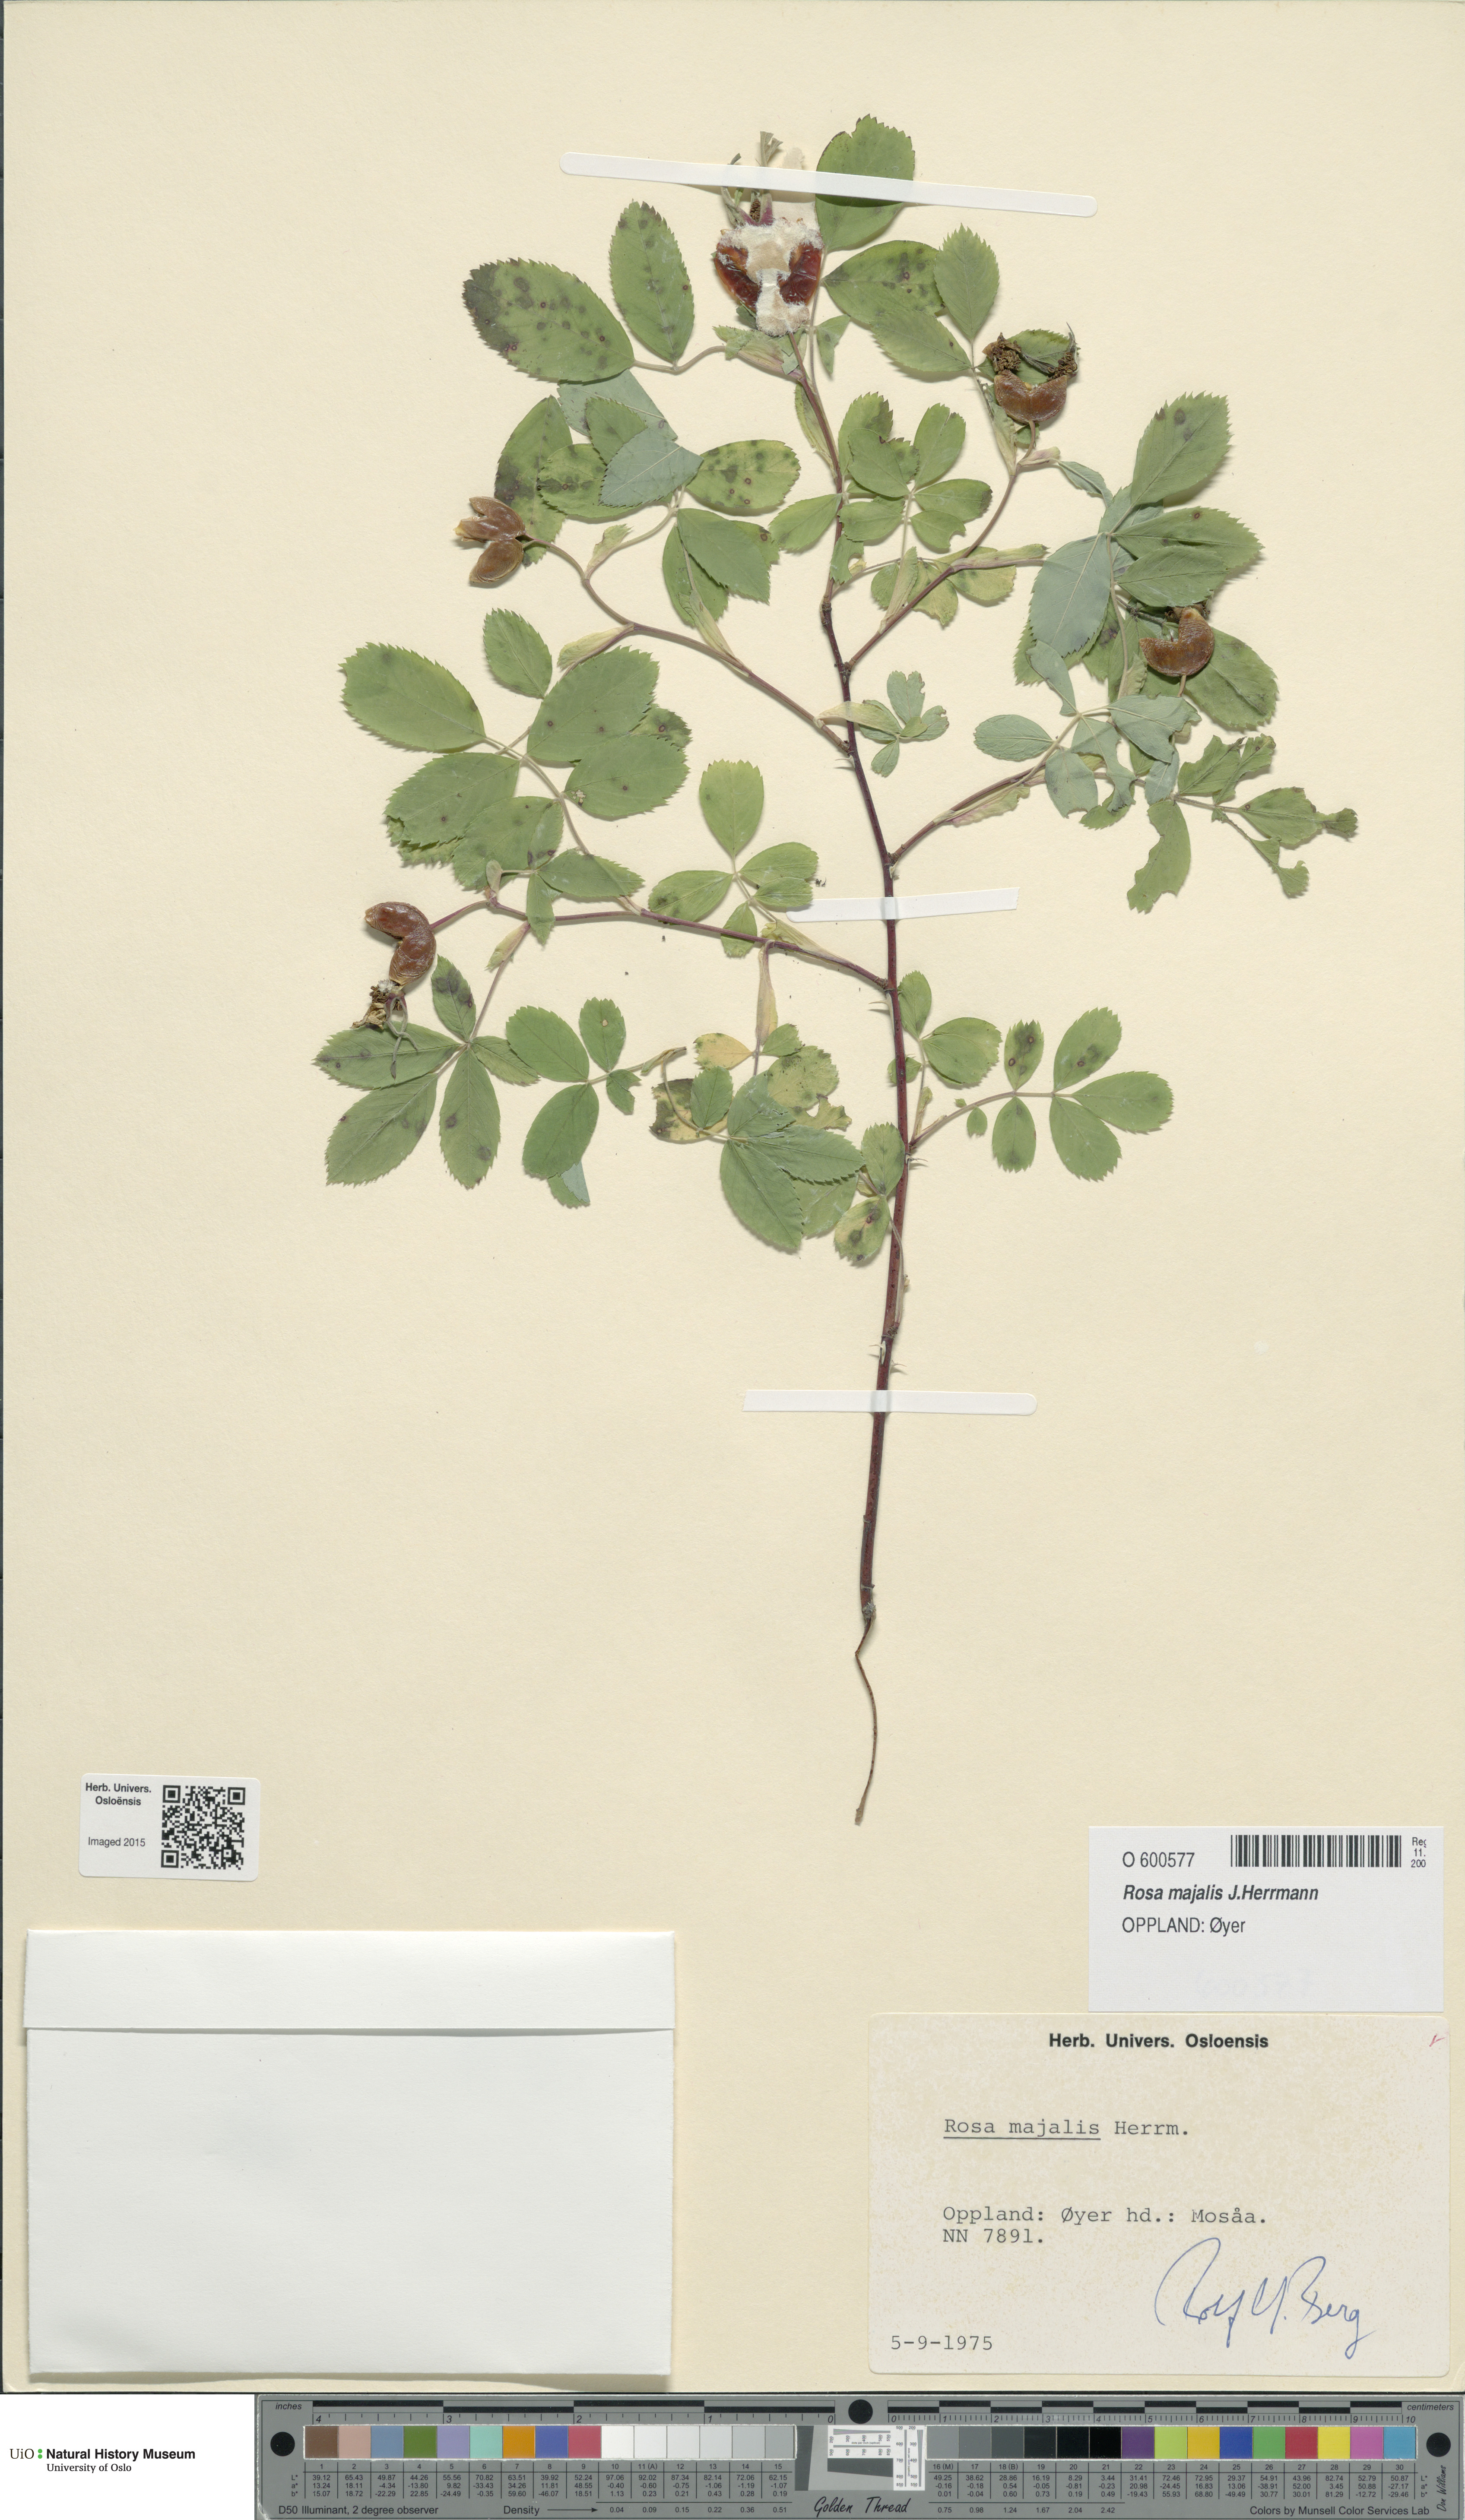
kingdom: Plantae
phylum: Tracheophyta
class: Magnoliopsida
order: Rosales
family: Rosaceae
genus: Rosa
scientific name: Rosa majalis
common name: Cinnamon rose
